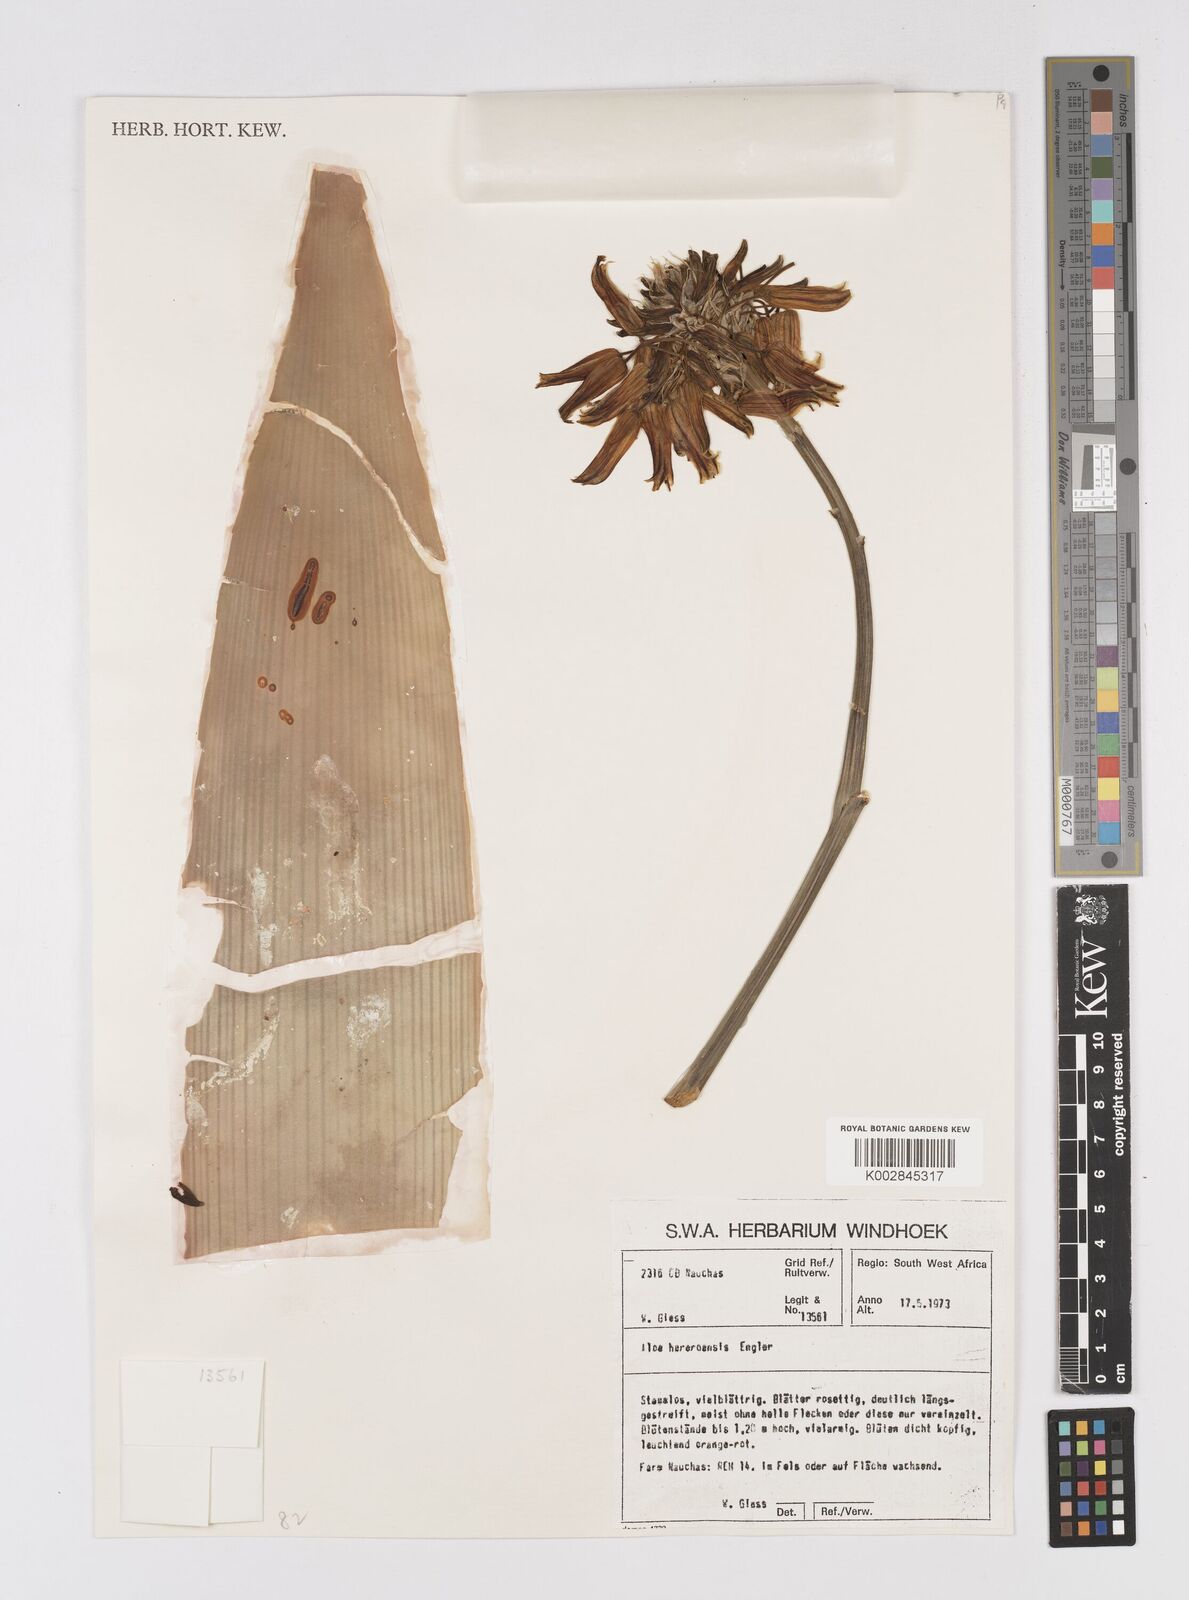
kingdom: Plantae
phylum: Tracheophyta
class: Liliopsida
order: Asparagales
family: Asphodelaceae
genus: Aloe
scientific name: Aloe hereroensis
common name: Herero aloe
